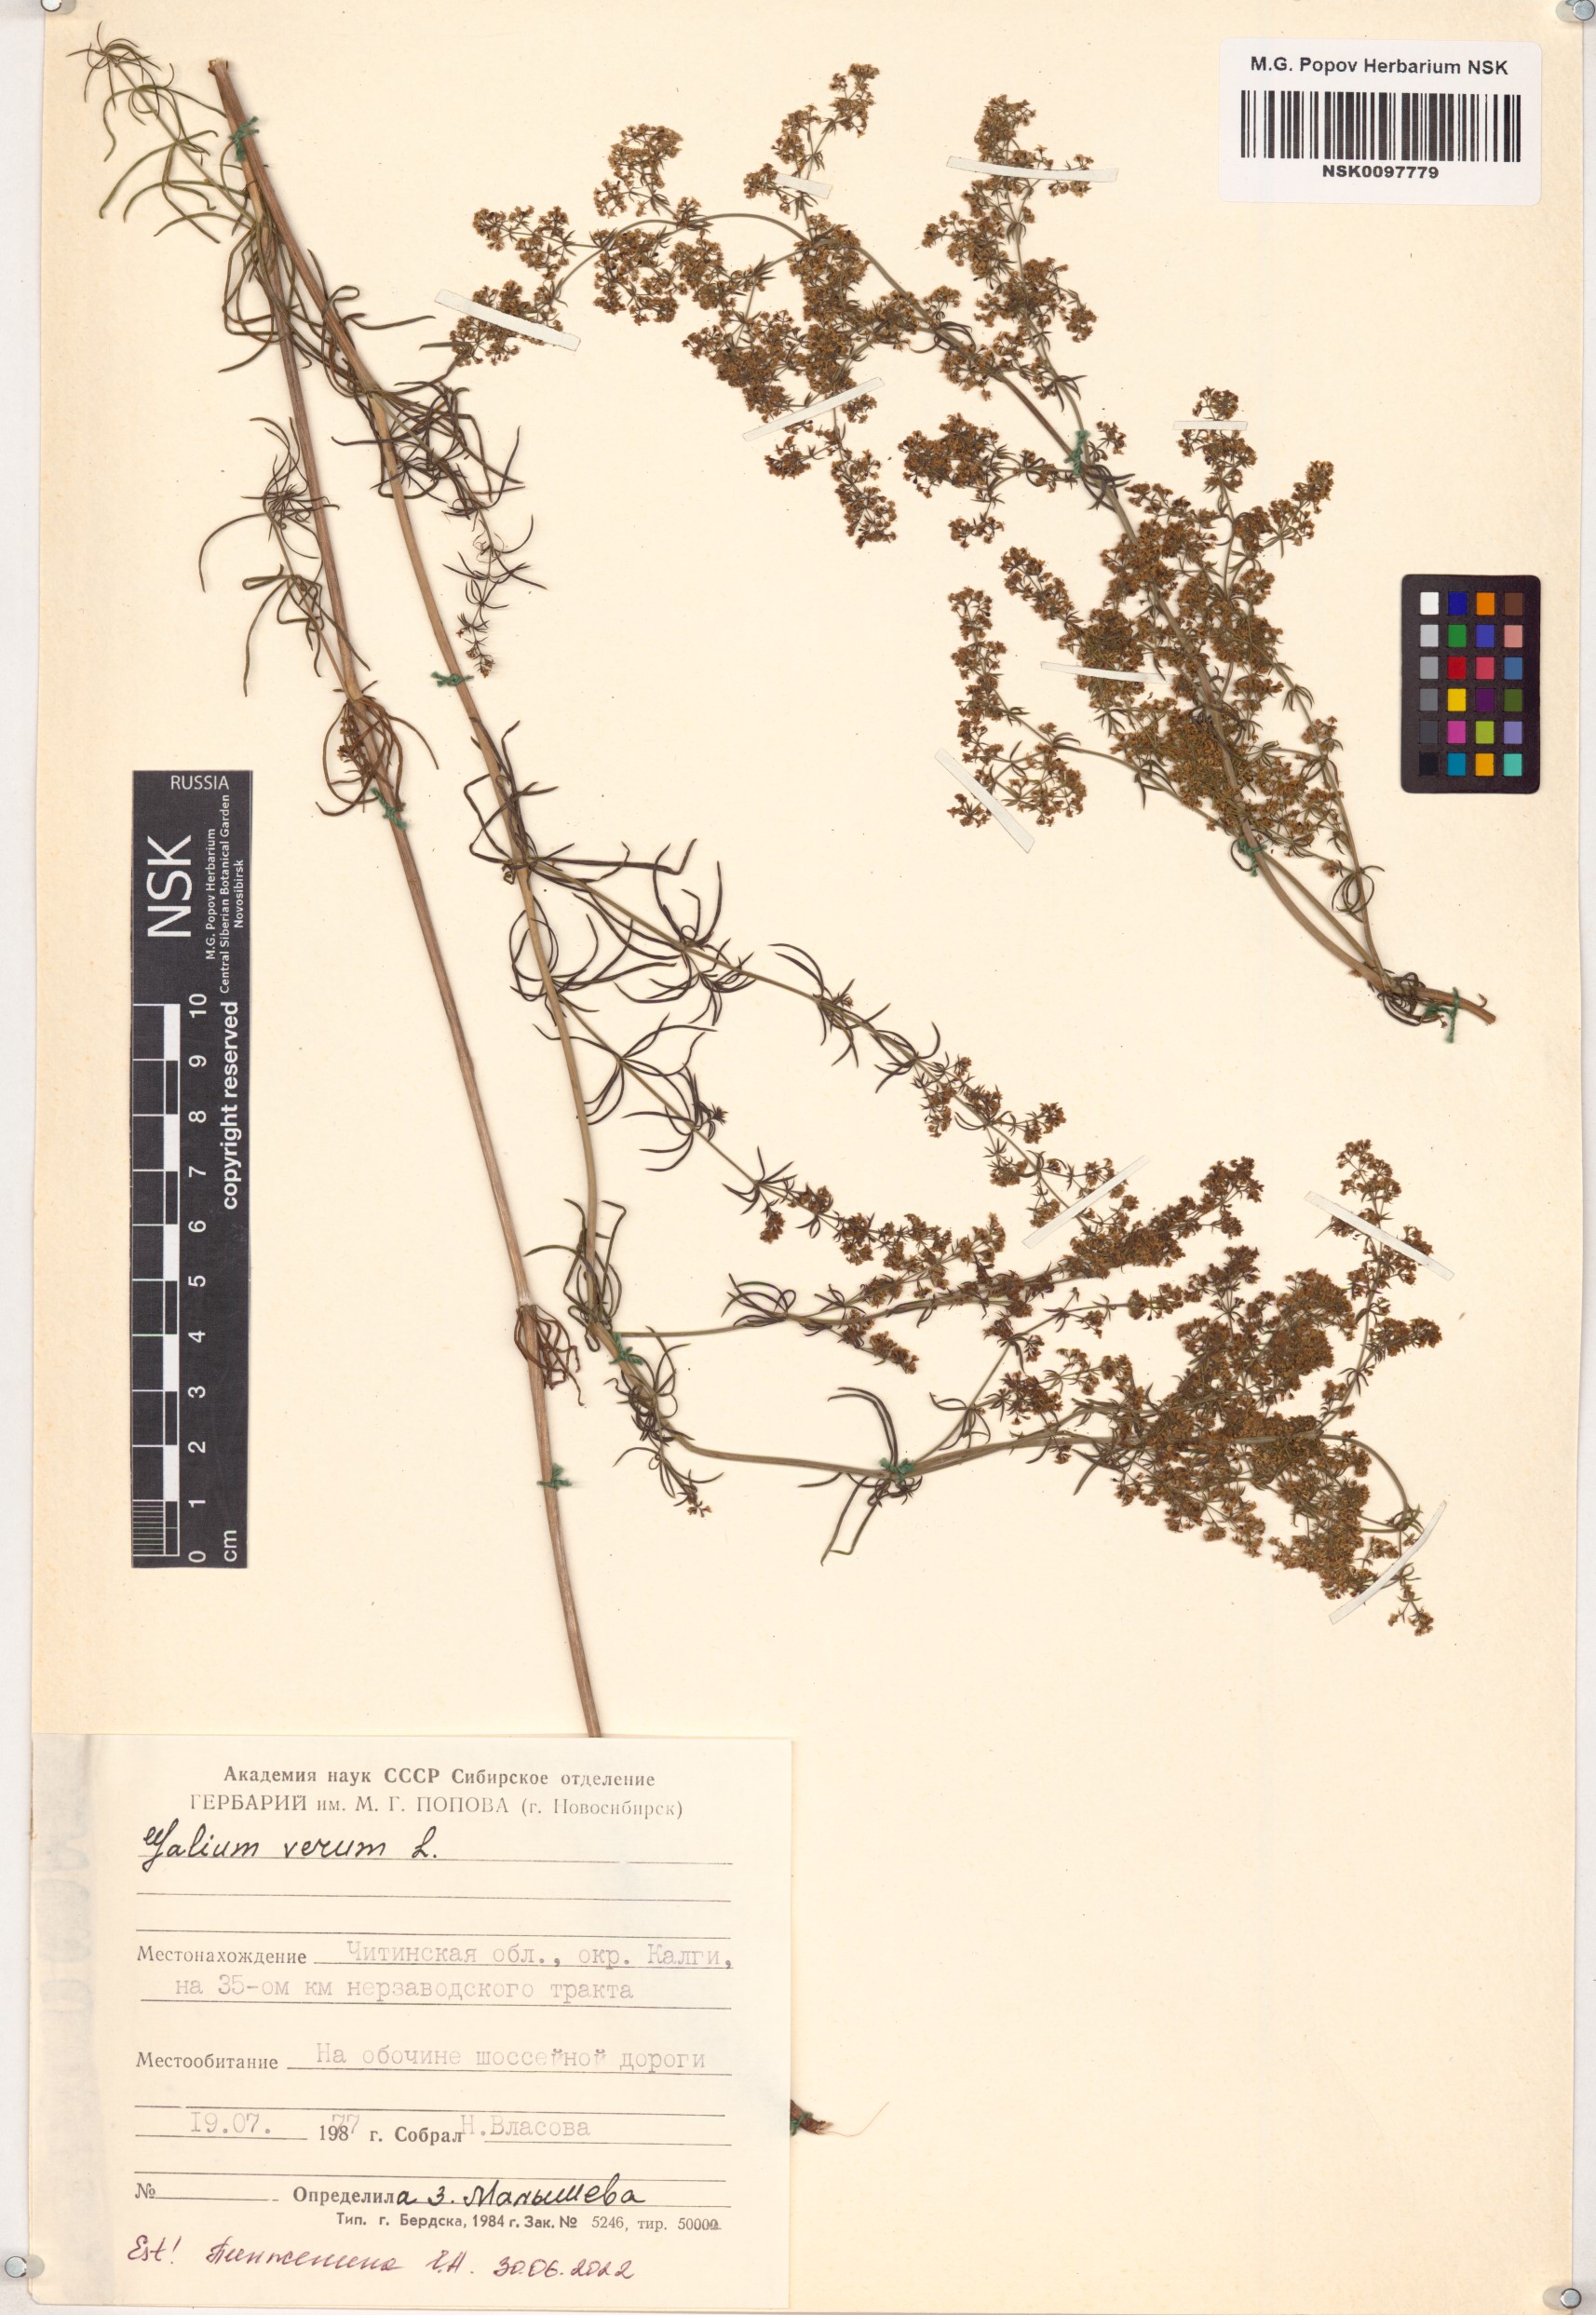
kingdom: Plantae
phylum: Tracheophyta
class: Magnoliopsida
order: Gentianales
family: Rubiaceae
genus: Galium
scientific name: Galium verum
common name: Lady's bedstraw
